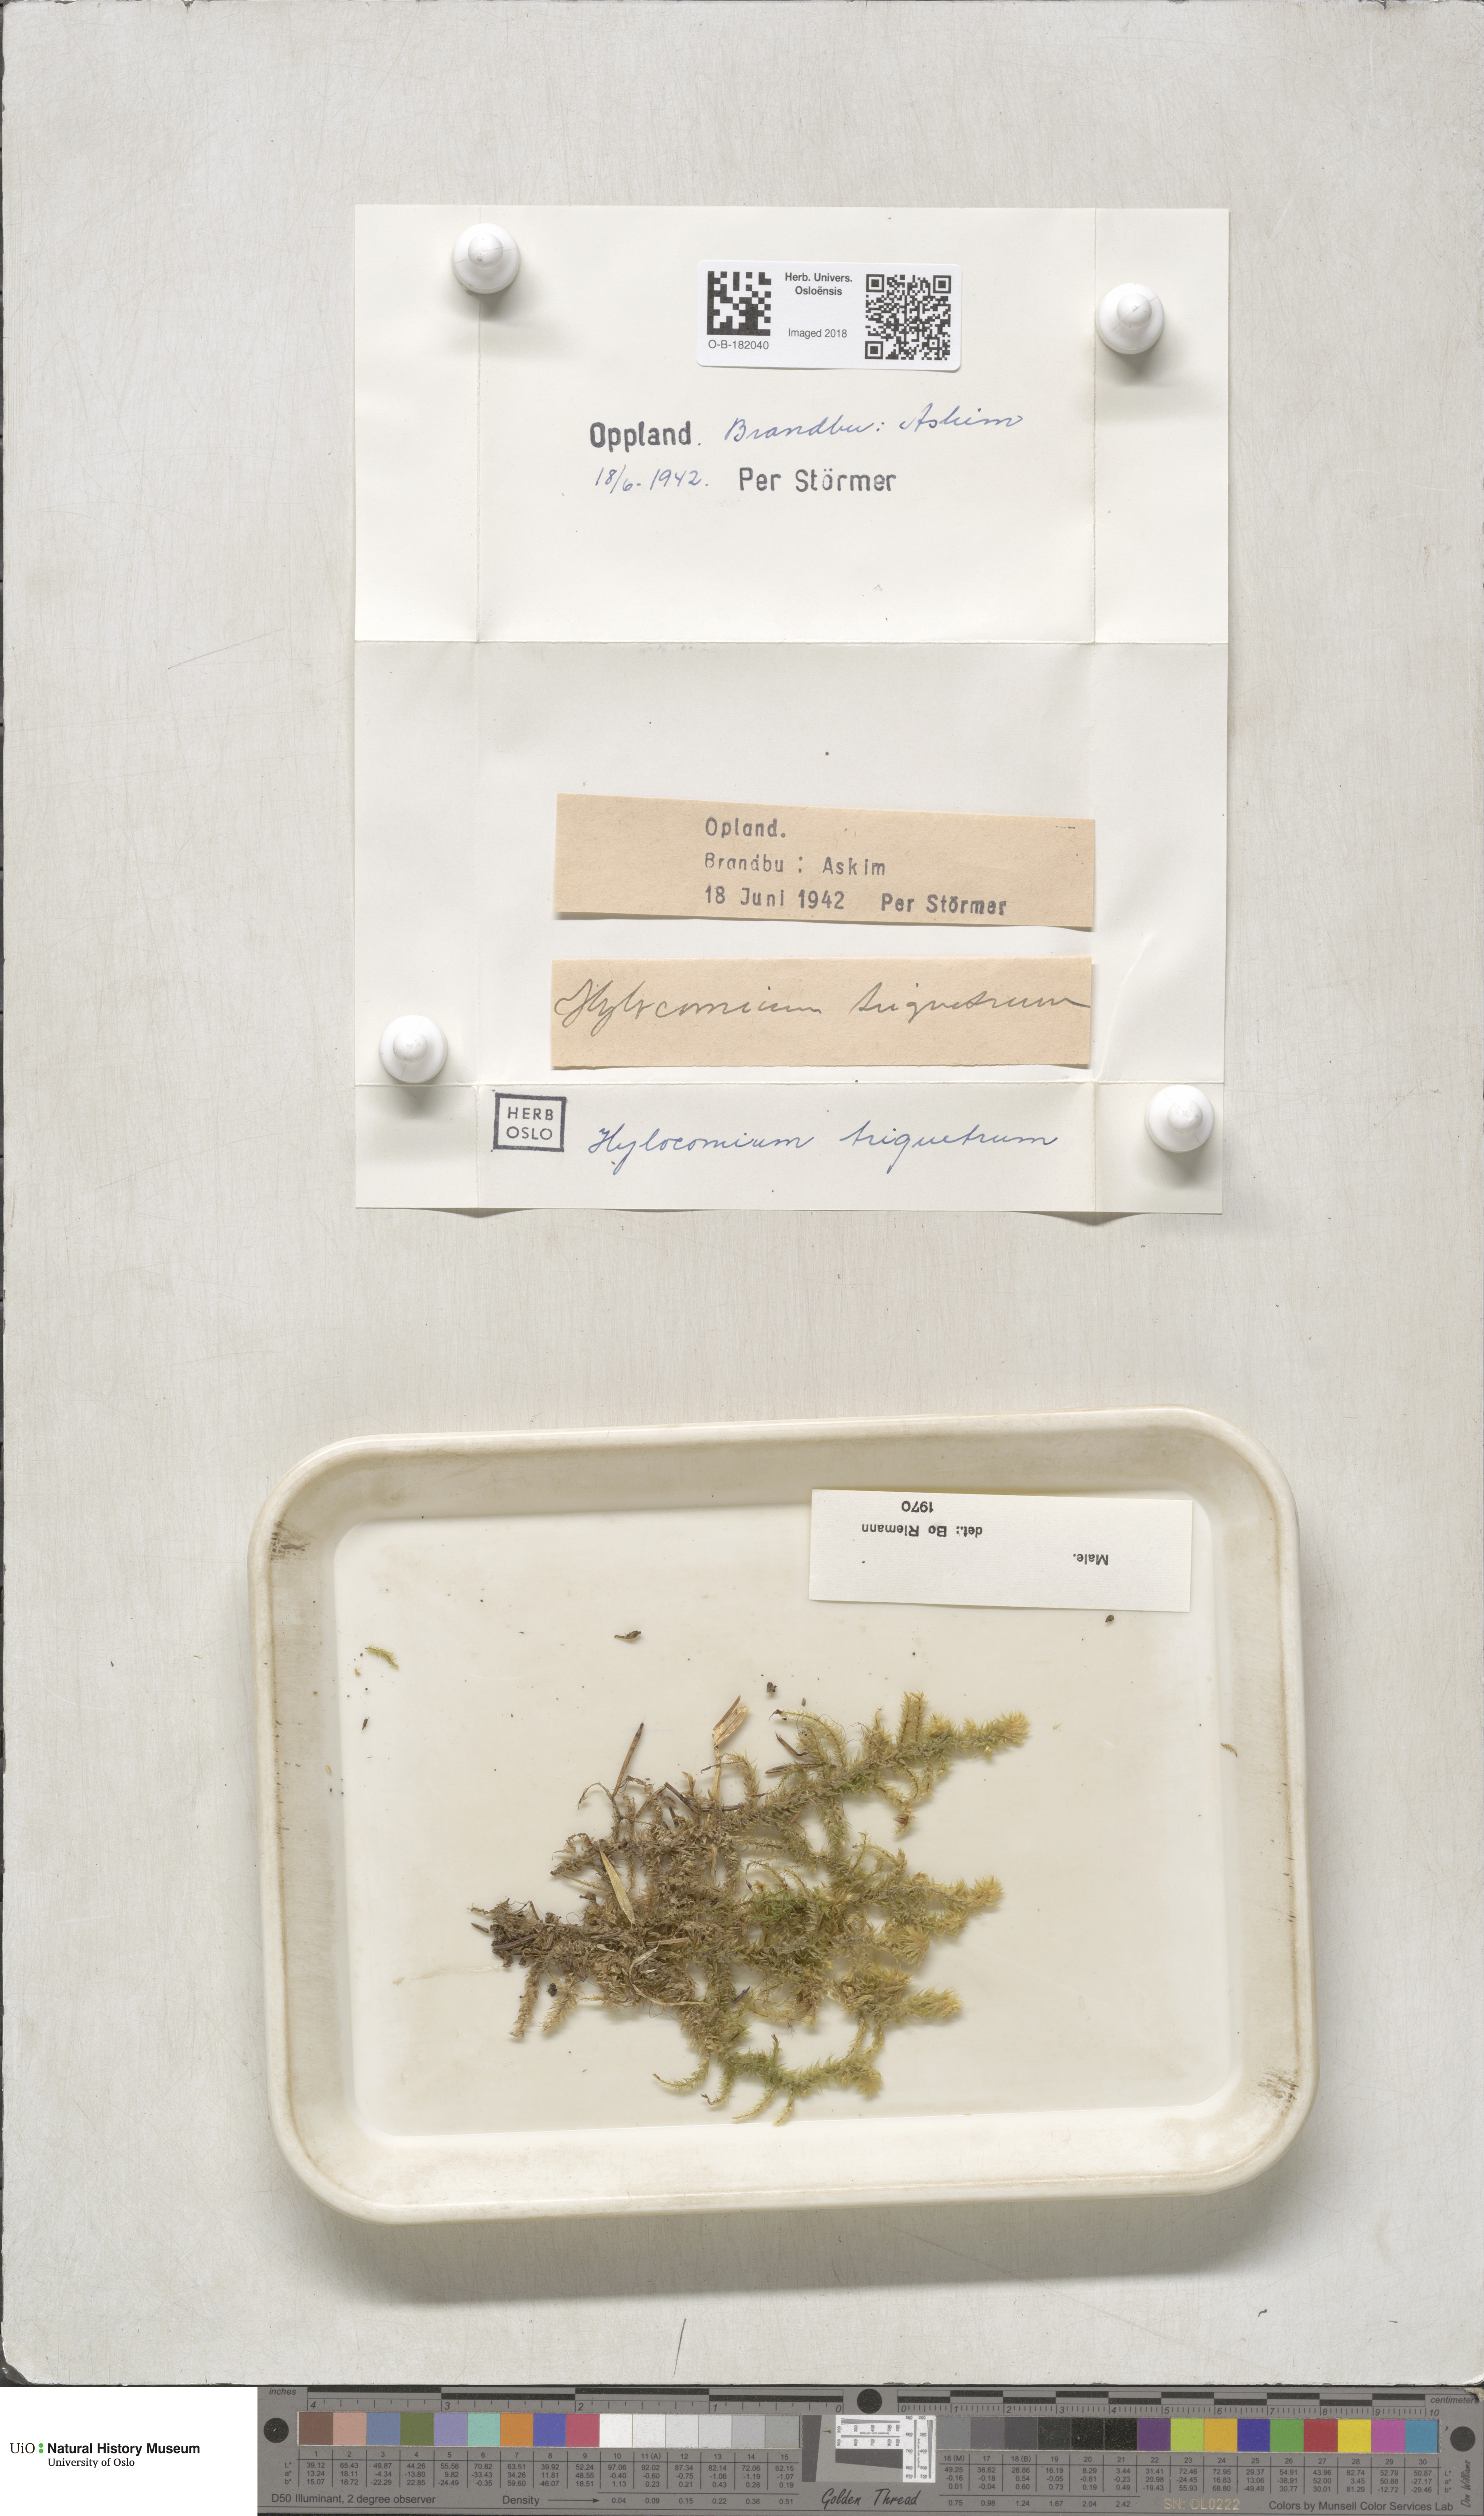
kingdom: Plantae
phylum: Bryophyta
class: Bryopsida
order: Hypnales
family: Hylocomiaceae
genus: Hylocomiadelphus
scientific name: Hylocomiadelphus triquetrus
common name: Rough goose neck moss
